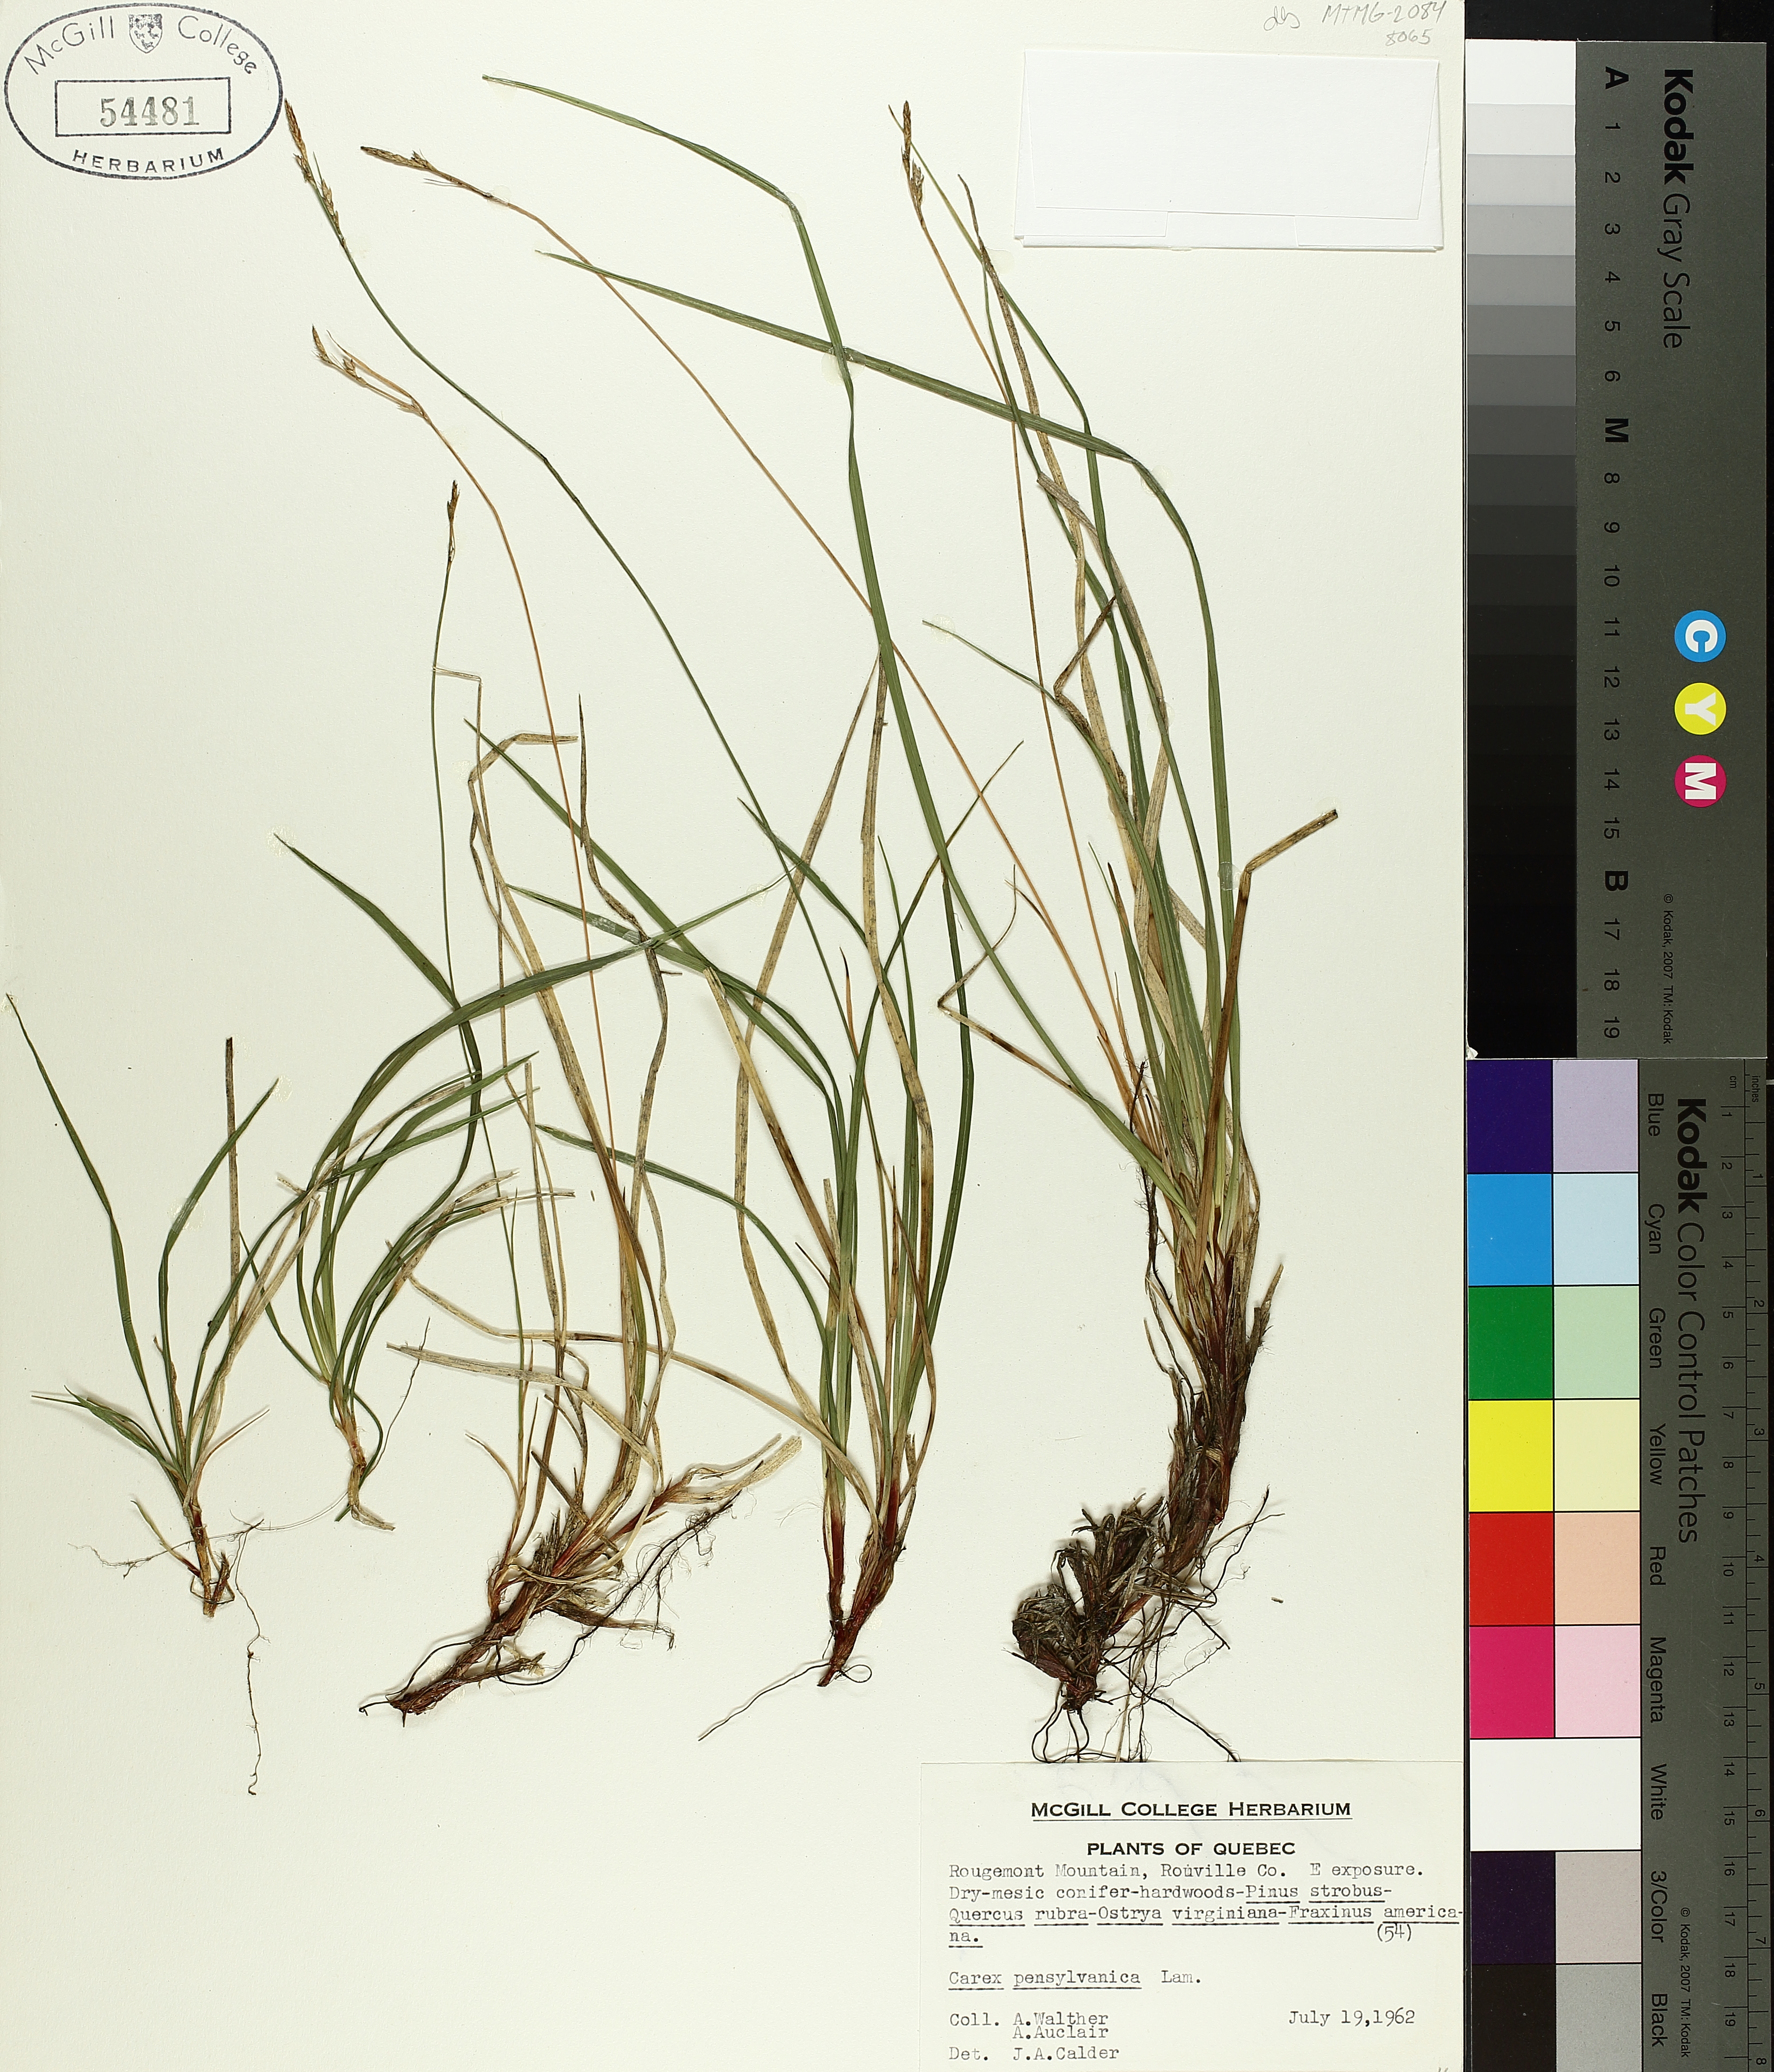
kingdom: Plantae
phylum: Tracheophyta
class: Liliopsida
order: Poales
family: Cyperaceae
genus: Carex
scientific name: Carex pensylvanica
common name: Common oak sedge
